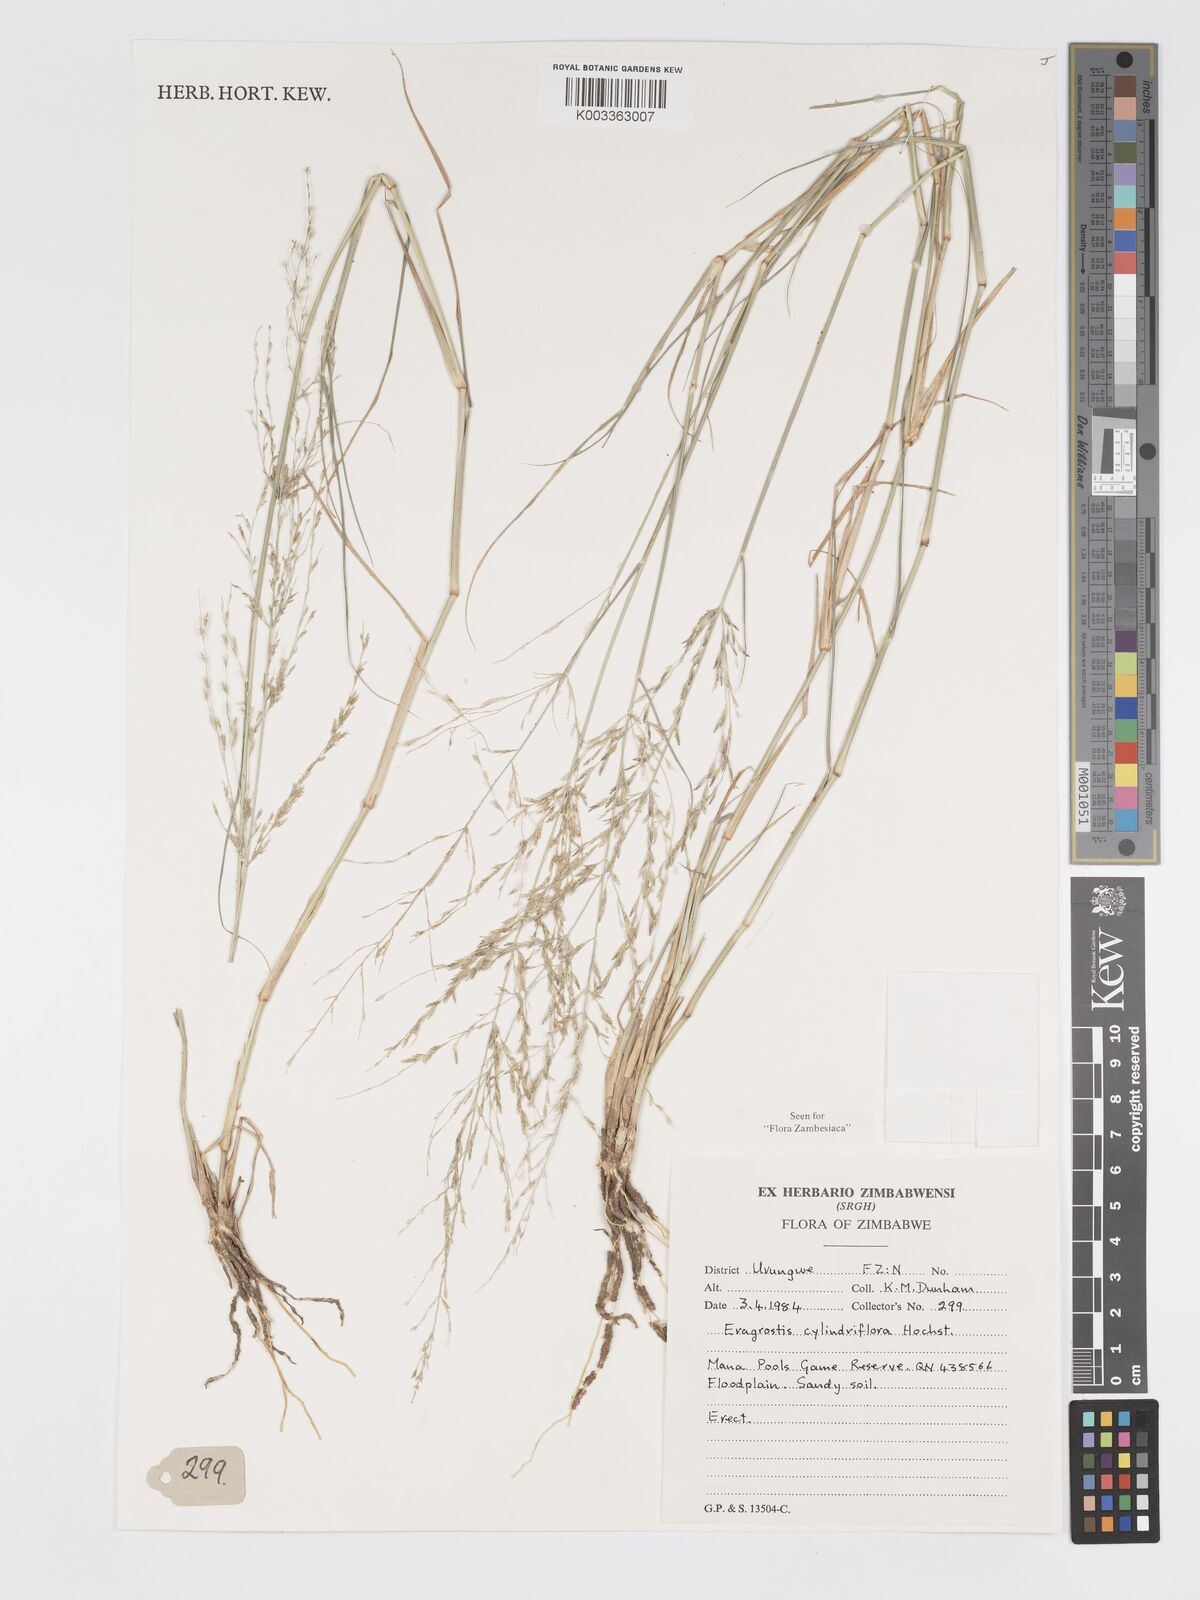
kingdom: Plantae
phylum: Tracheophyta
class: Liliopsida
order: Poales
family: Poaceae
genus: Eragrostis
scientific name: Eragrostis cylindriflora
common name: Cylinderflower lovegrass
